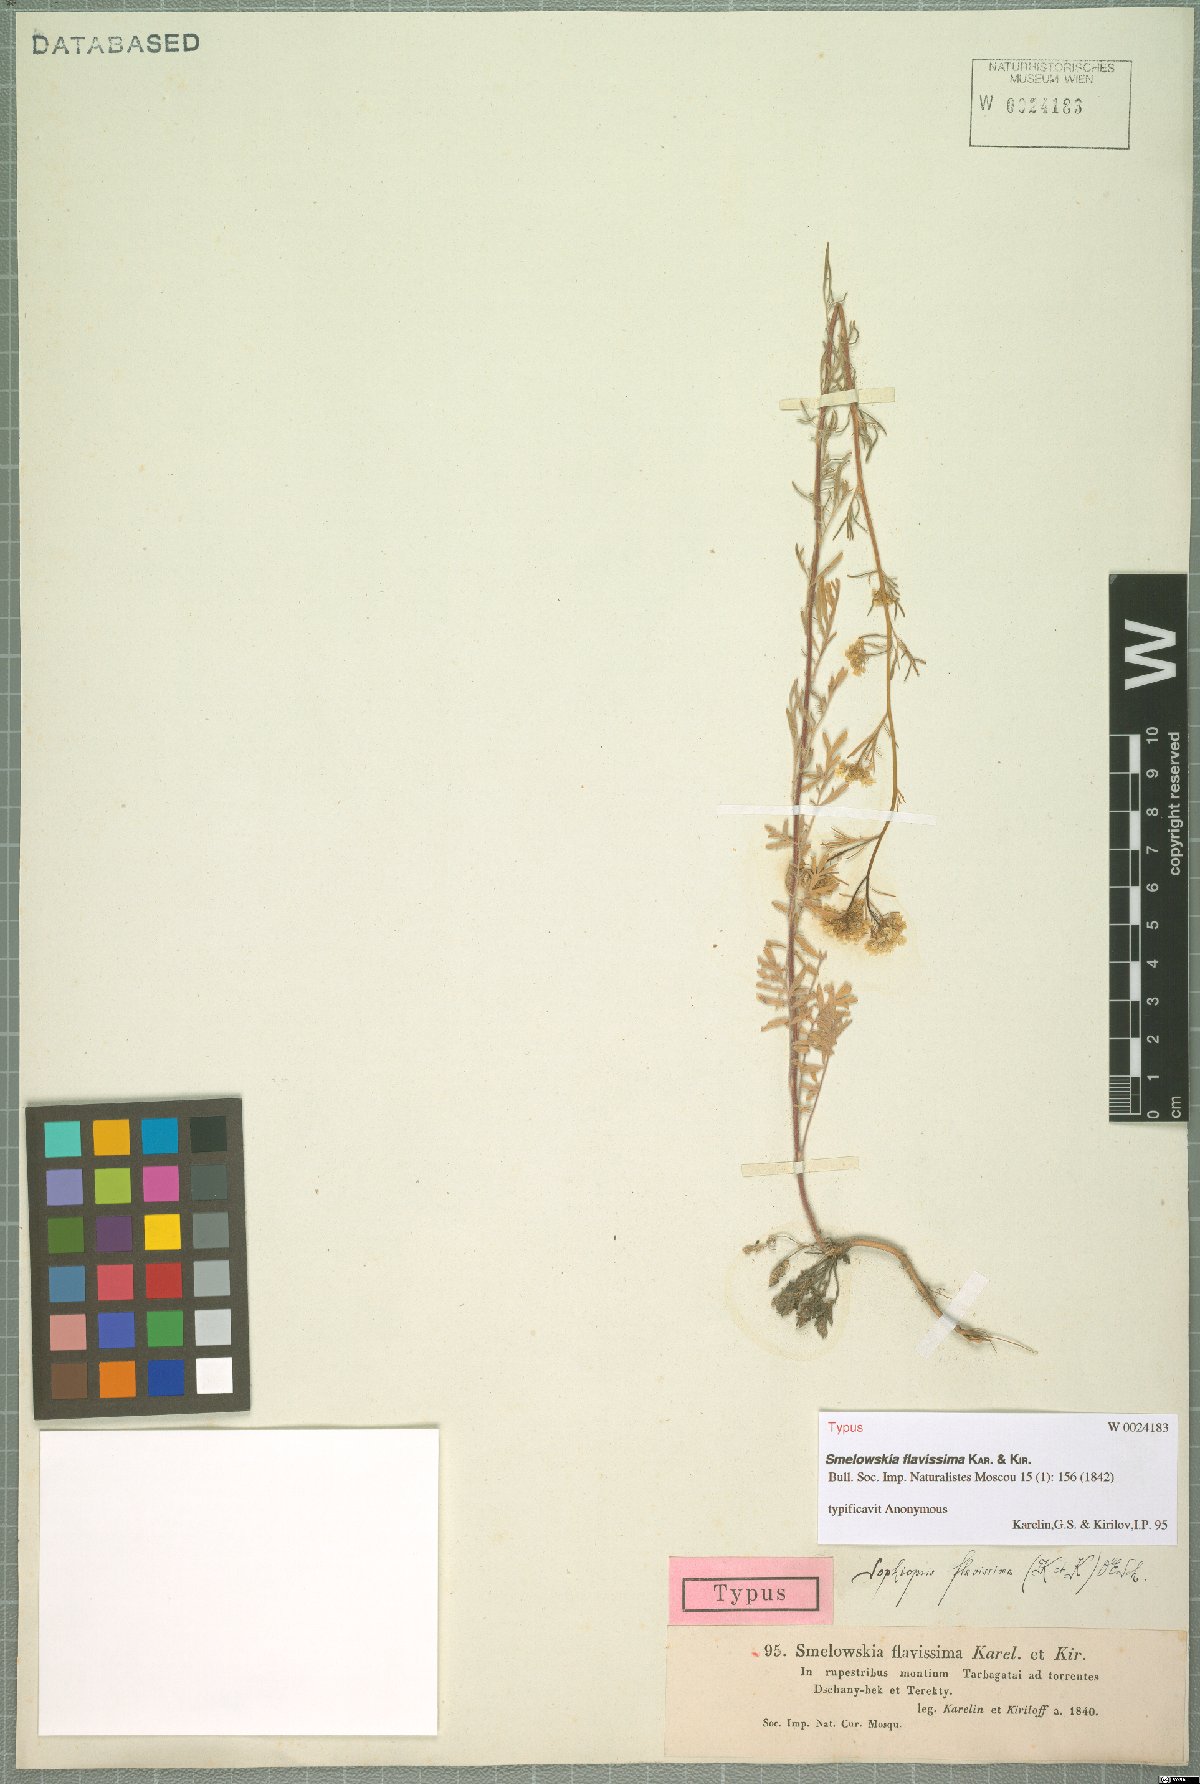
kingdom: Plantae
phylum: Tracheophyta
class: Magnoliopsida
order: Brassicales
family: Brassicaceae
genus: Smelowskia
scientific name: Smelowskia flavissima
